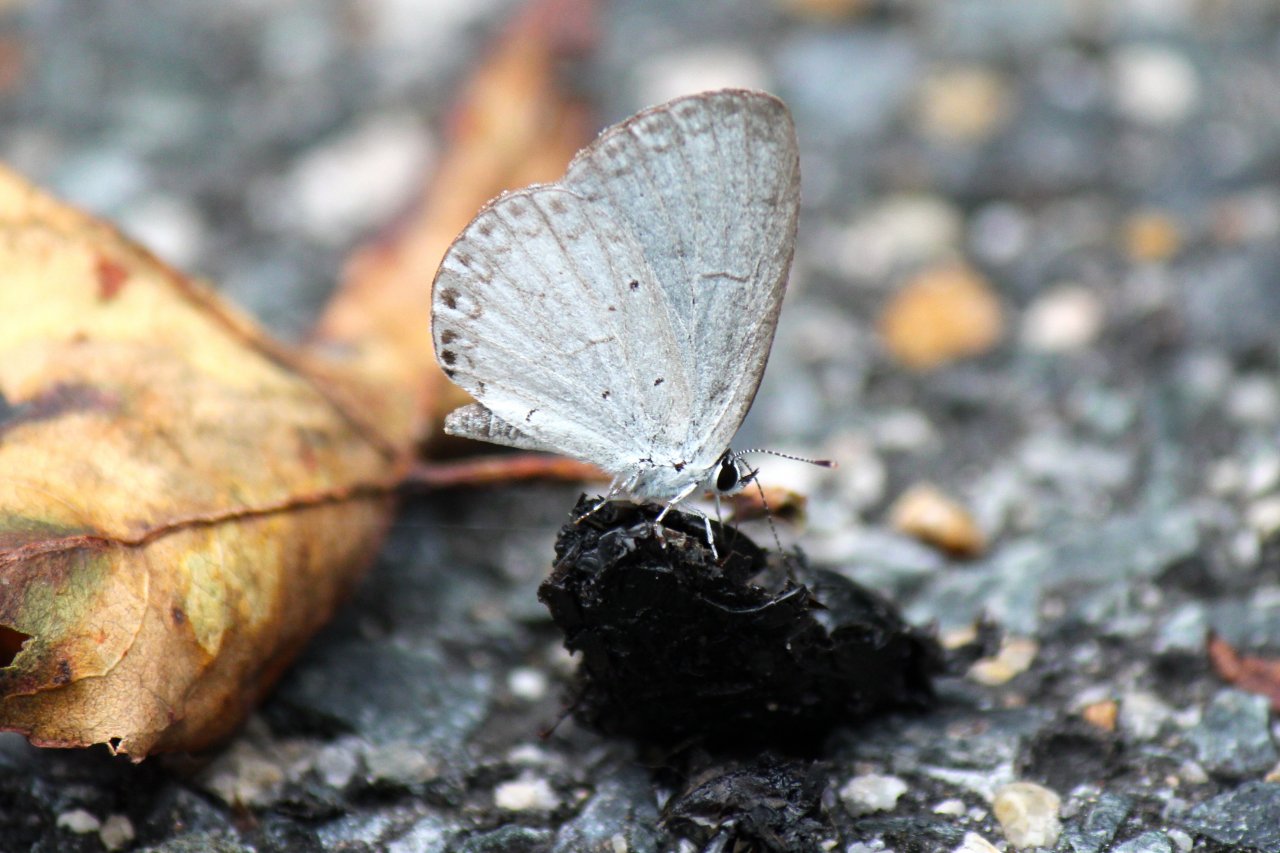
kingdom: Animalia
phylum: Arthropoda
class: Insecta
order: Lepidoptera
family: Lycaenidae
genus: Cyaniris
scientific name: Cyaniris neglecta
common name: Summer Azure
